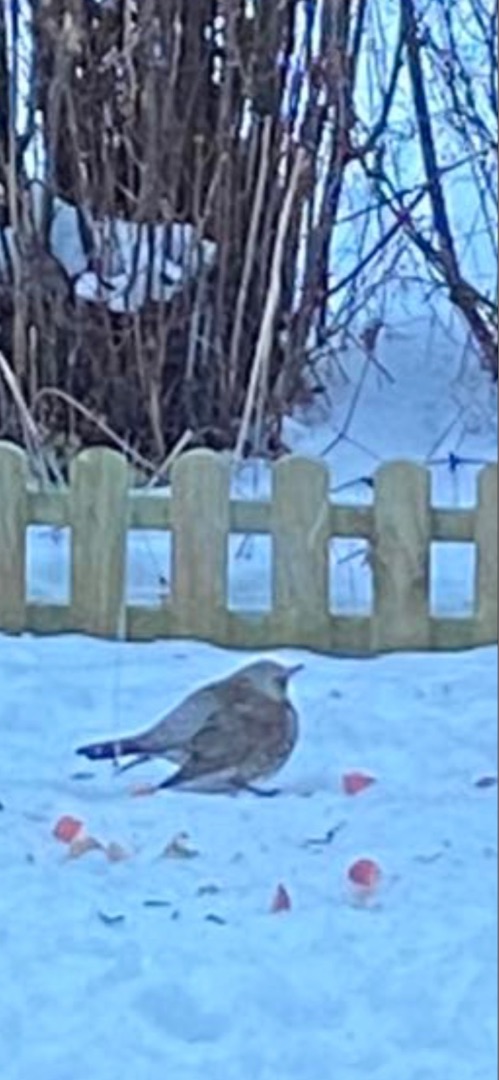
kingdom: Animalia
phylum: Chordata
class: Aves
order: Passeriformes
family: Turdidae
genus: Turdus
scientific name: Turdus pilaris
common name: Sjagger
